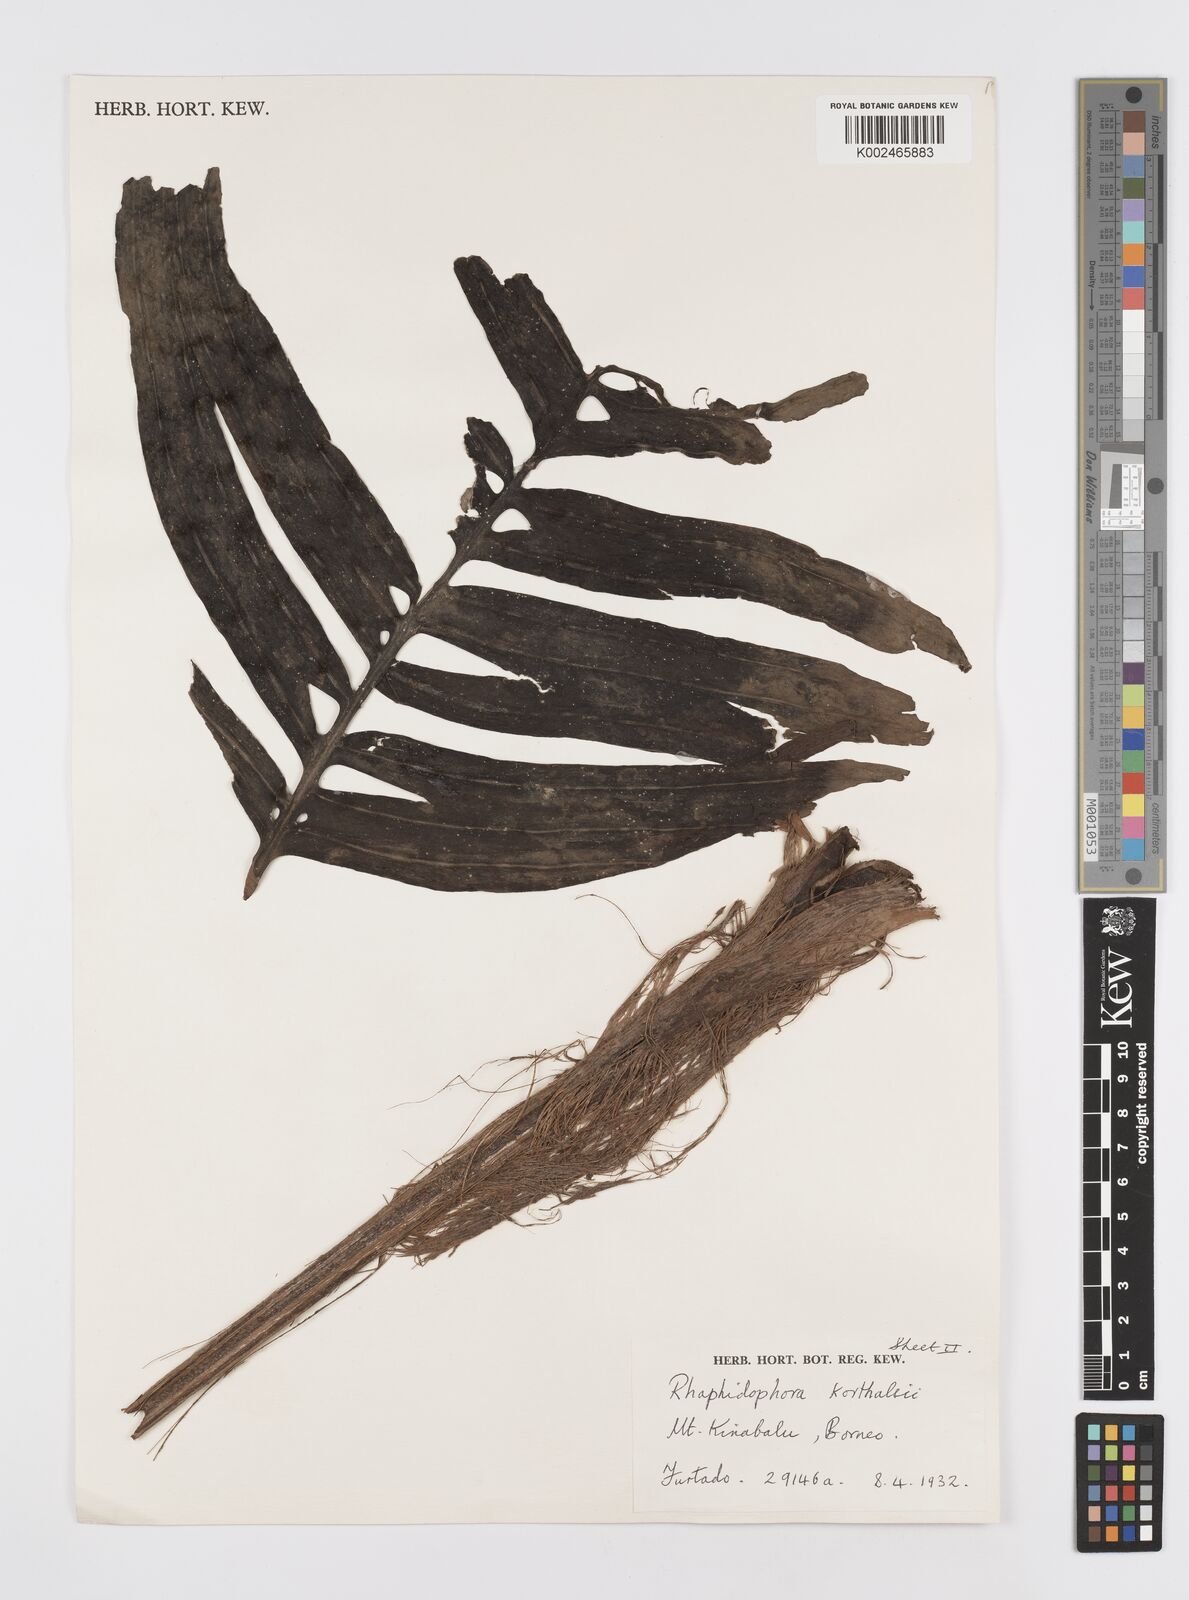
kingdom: Plantae
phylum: Tracheophyta
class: Liliopsida
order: Alismatales
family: Araceae
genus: Rhaphidophora
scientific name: Rhaphidophora korthalsii
